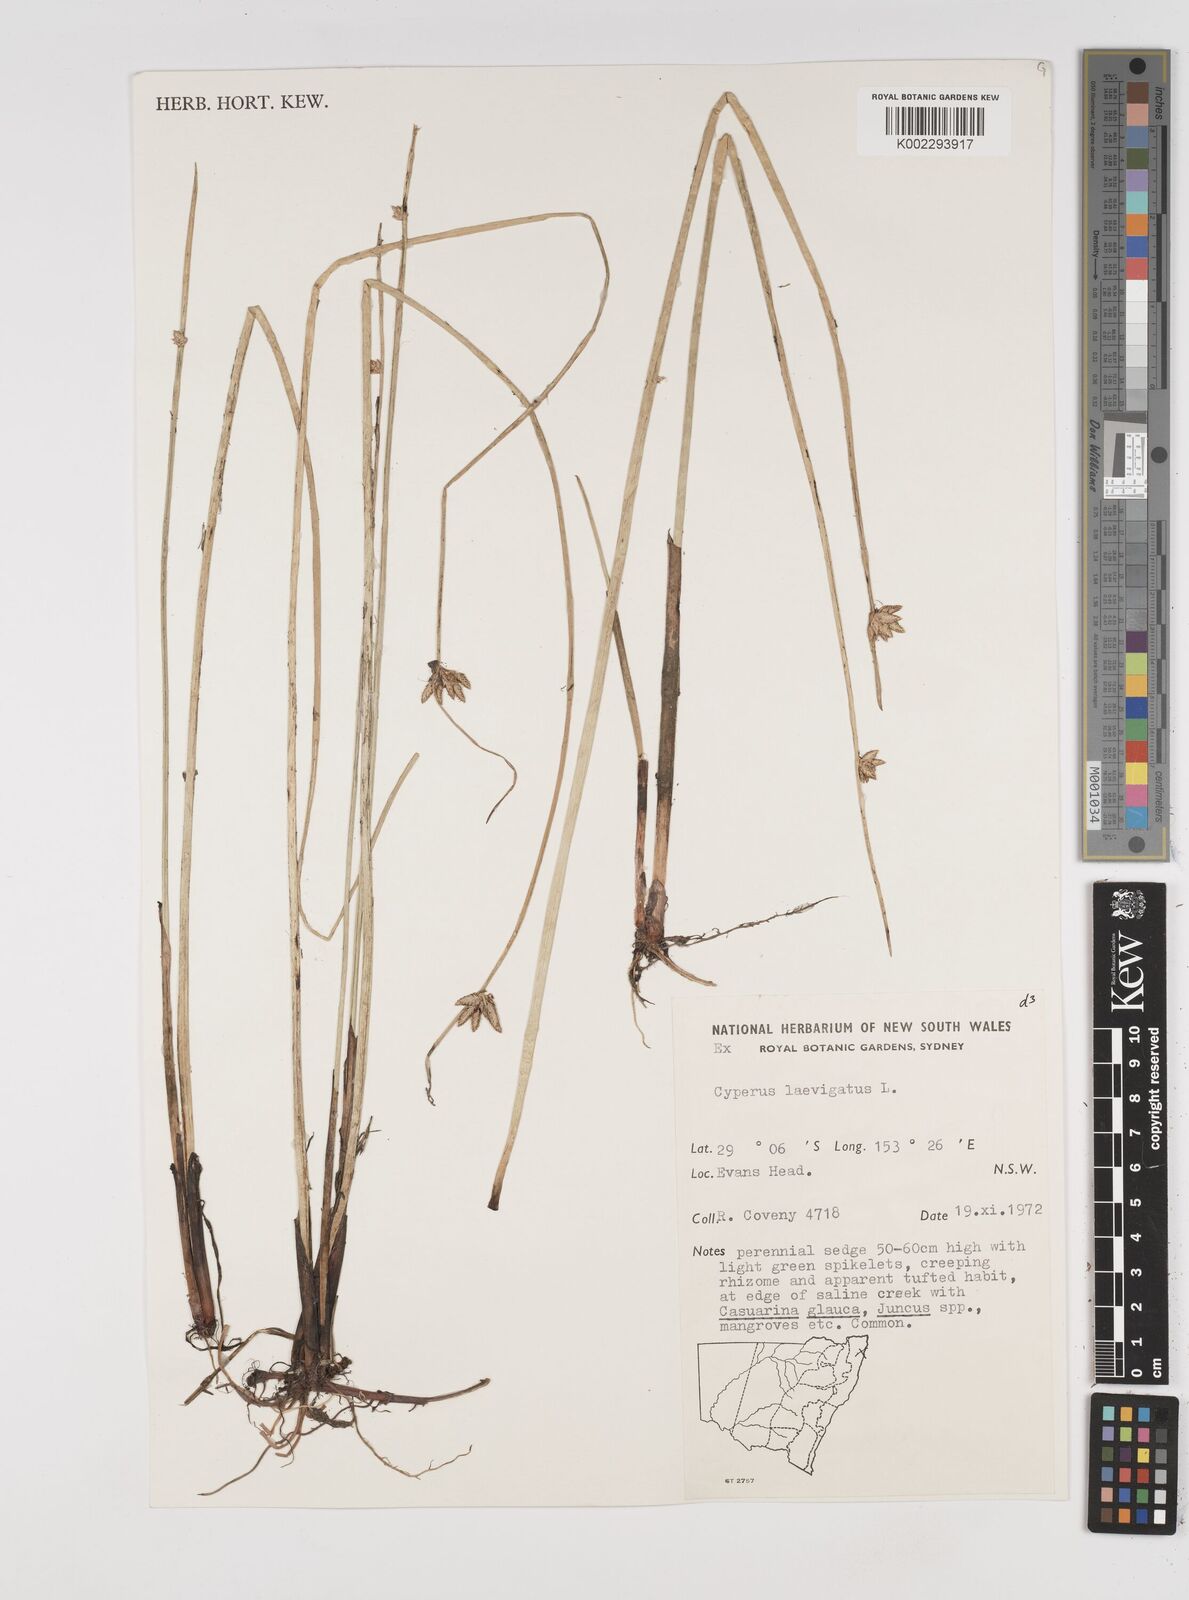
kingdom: Plantae
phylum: Tracheophyta
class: Liliopsida
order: Poales
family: Cyperaceae
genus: Cyperus
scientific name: Cyperus laevigatus
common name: Smooth flat sedge
